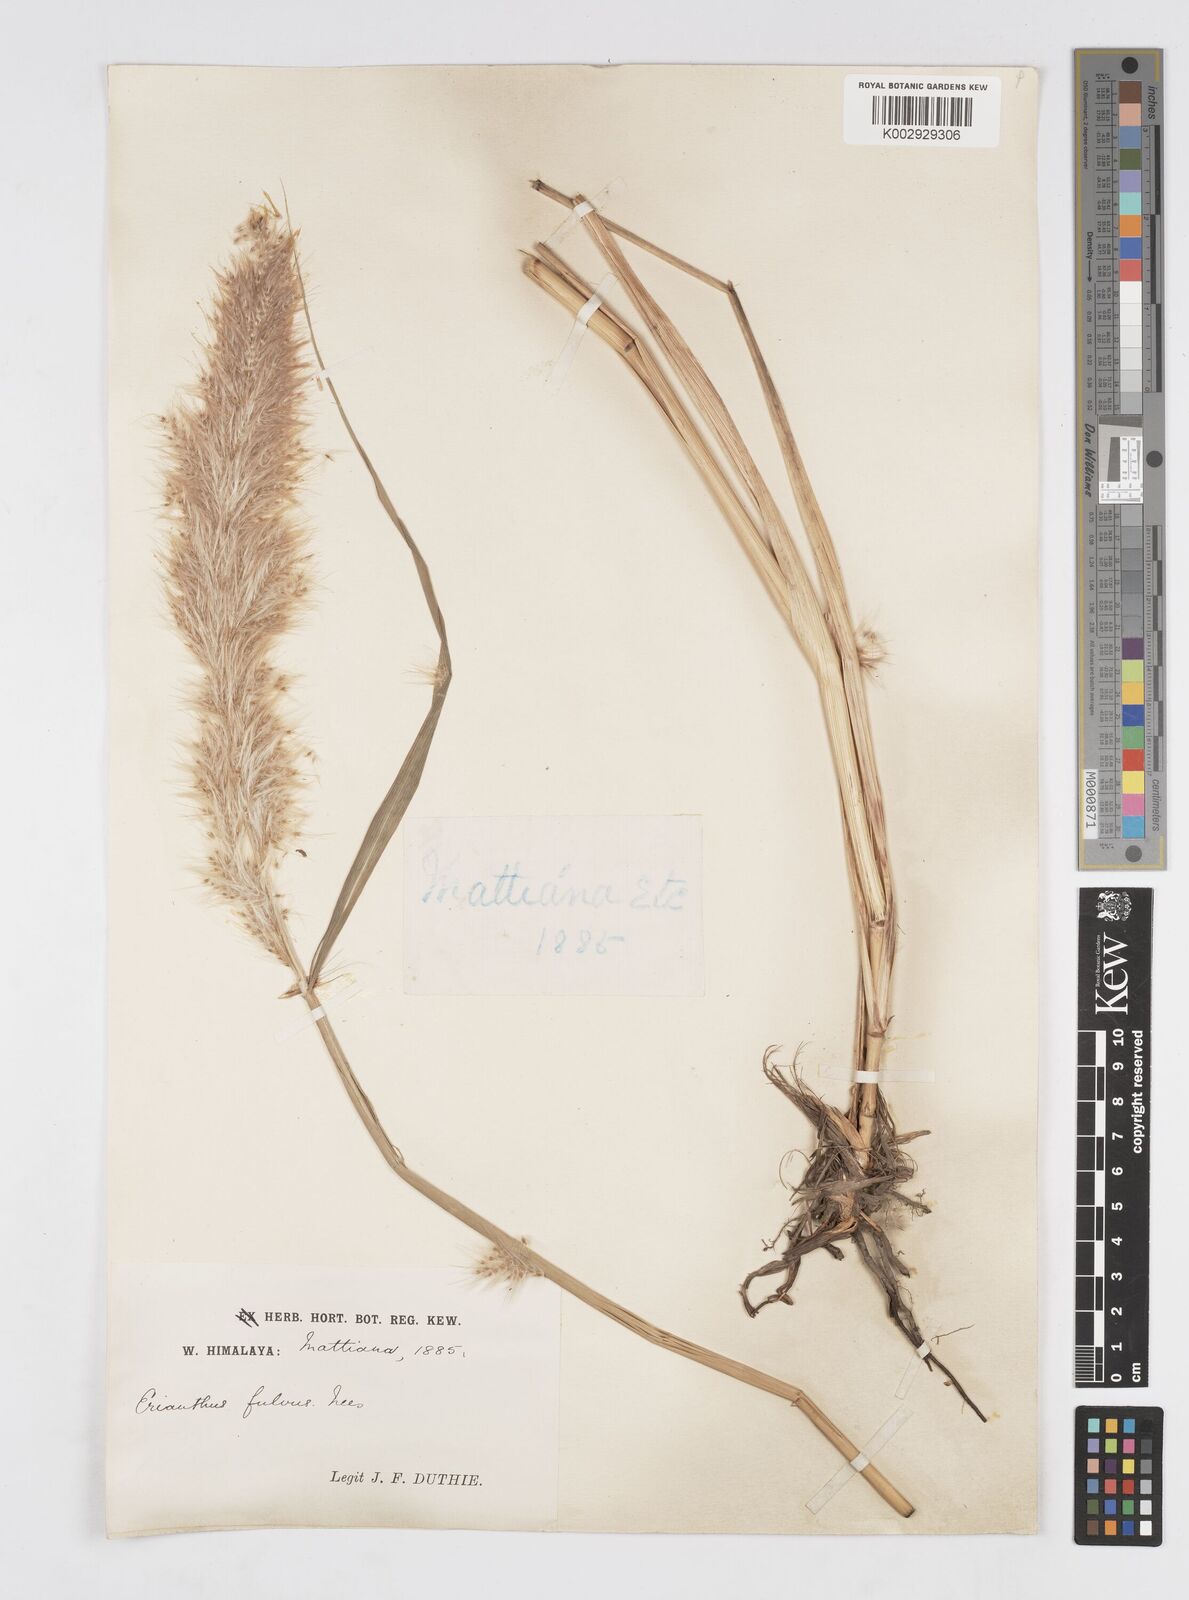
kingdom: Plantae
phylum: Tracheophyta
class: Liliopsida
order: Poales
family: Poaceae
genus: Tripidium
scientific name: Tripidium rufipilum
